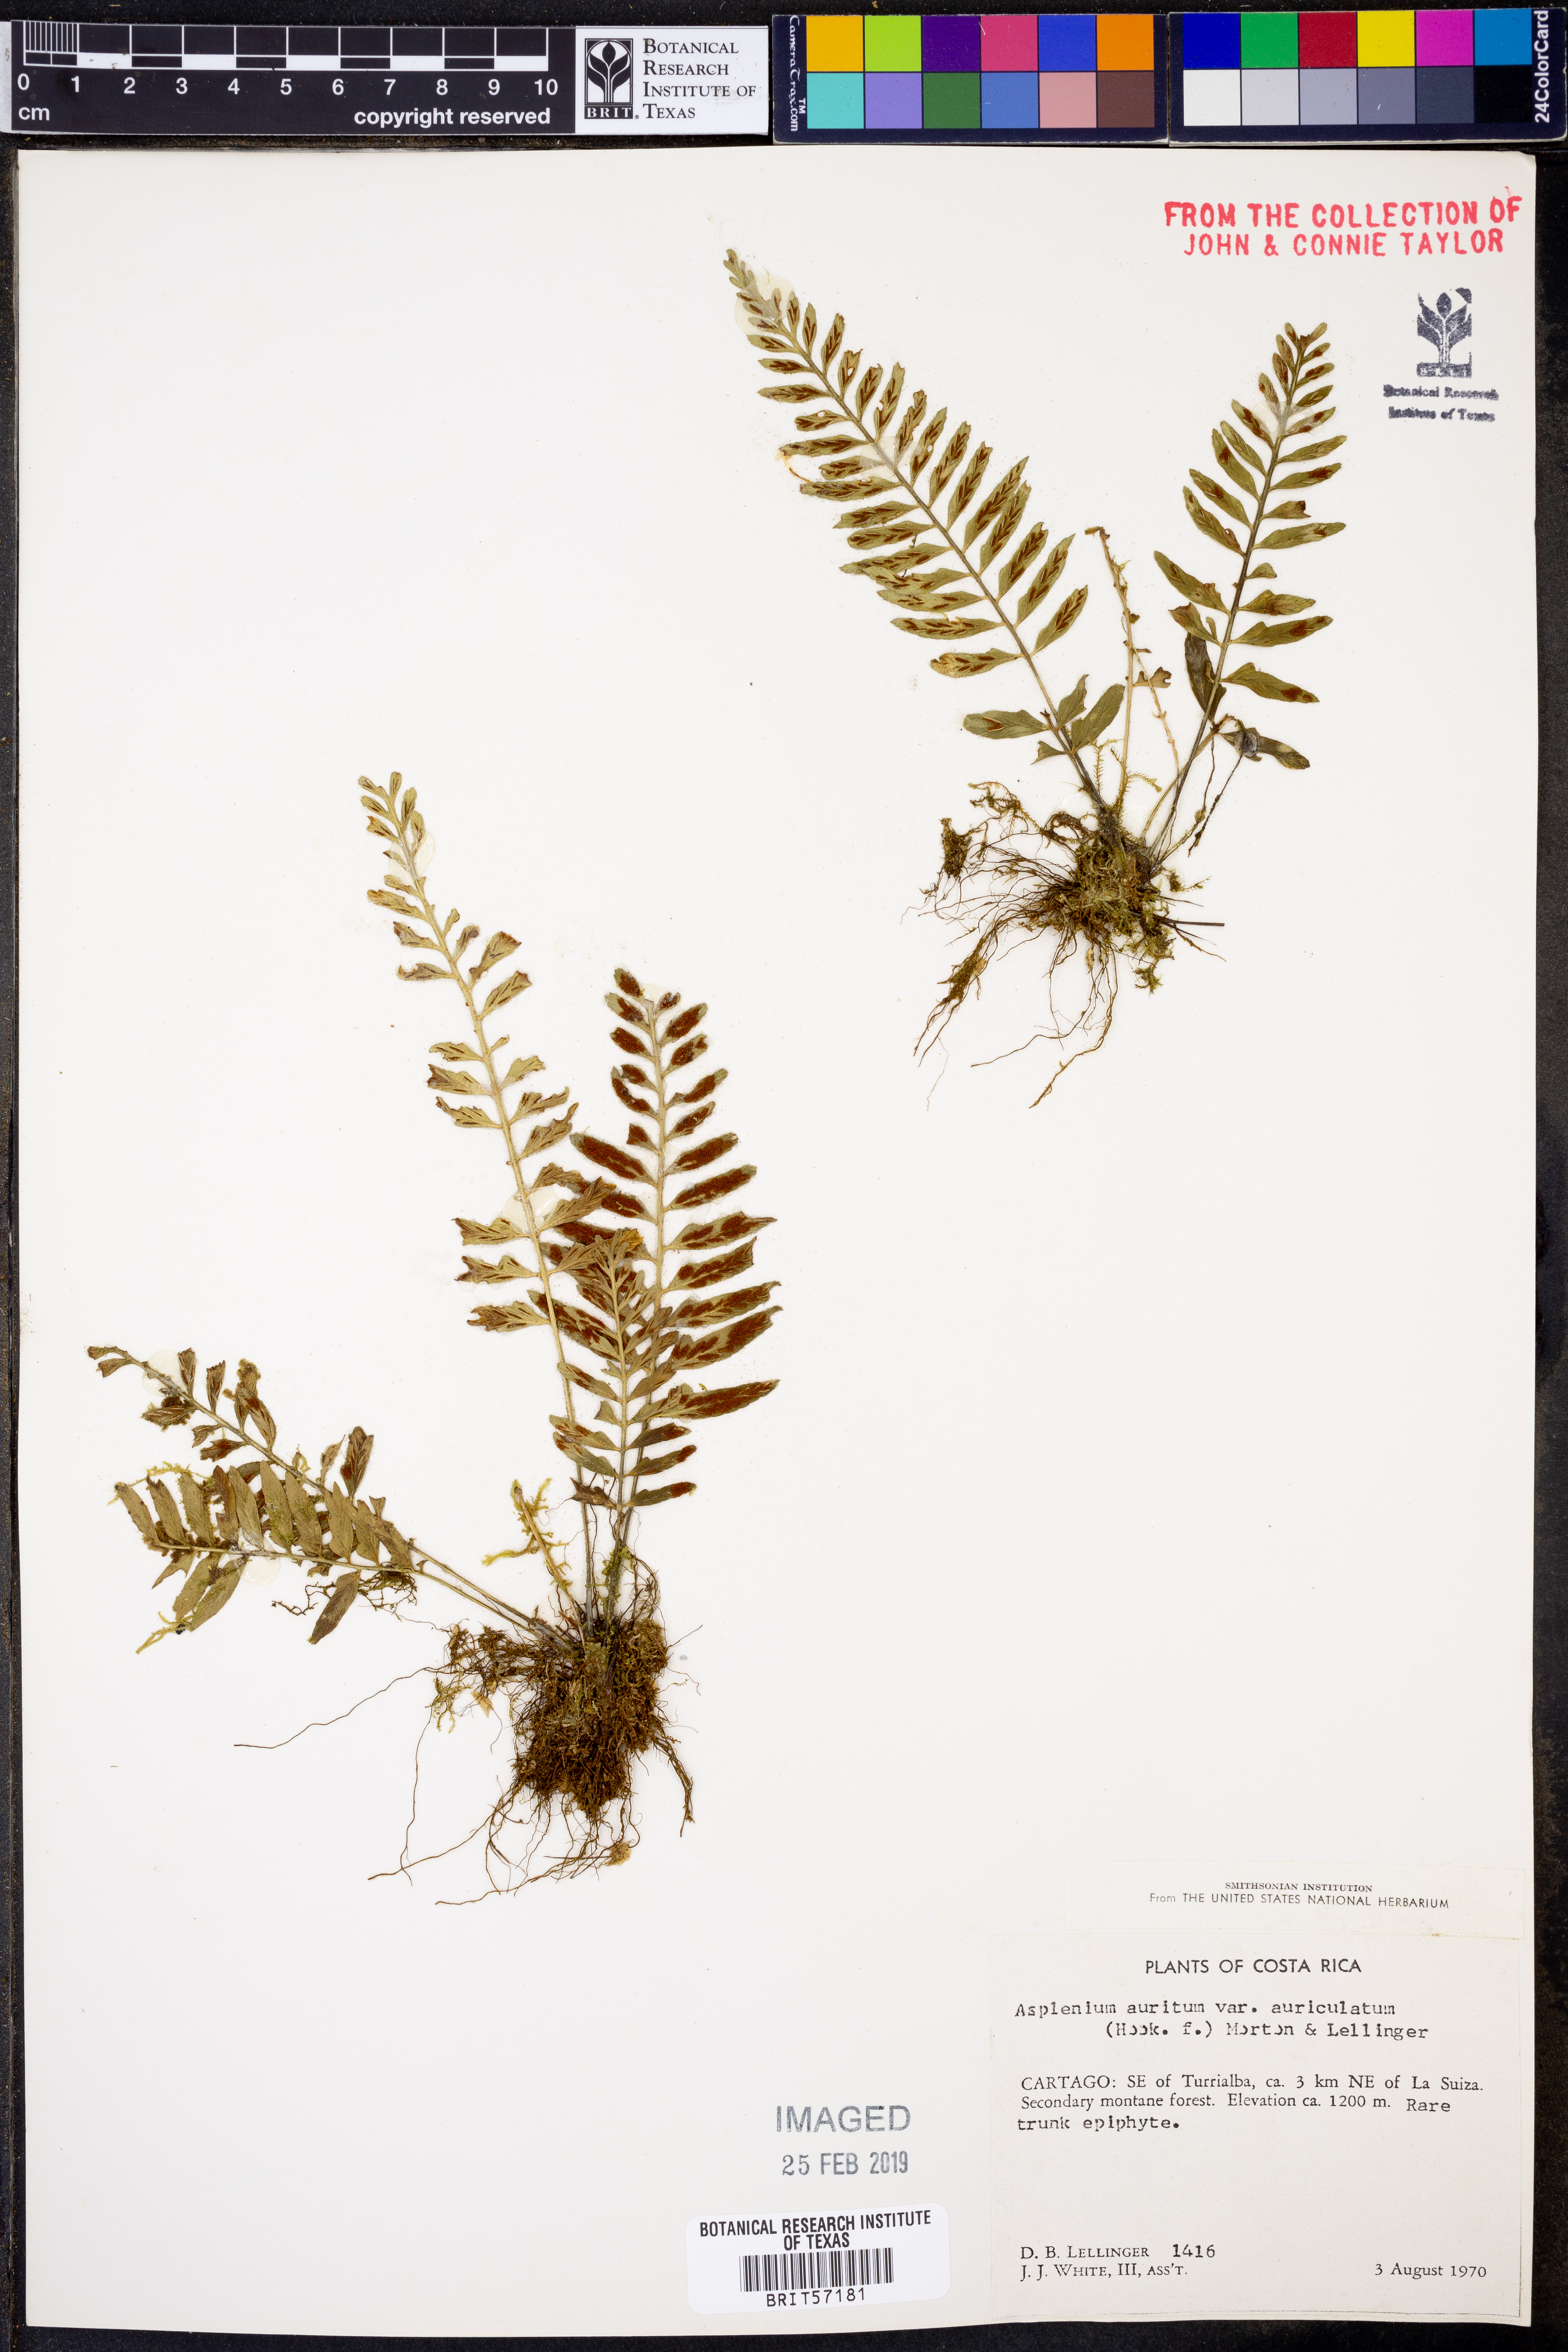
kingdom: Plantae
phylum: Tracheophyta
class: Polypodiopsida
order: Polypodiales
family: Aspleniaceae
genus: Asplenium
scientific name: Asplenium auritum
